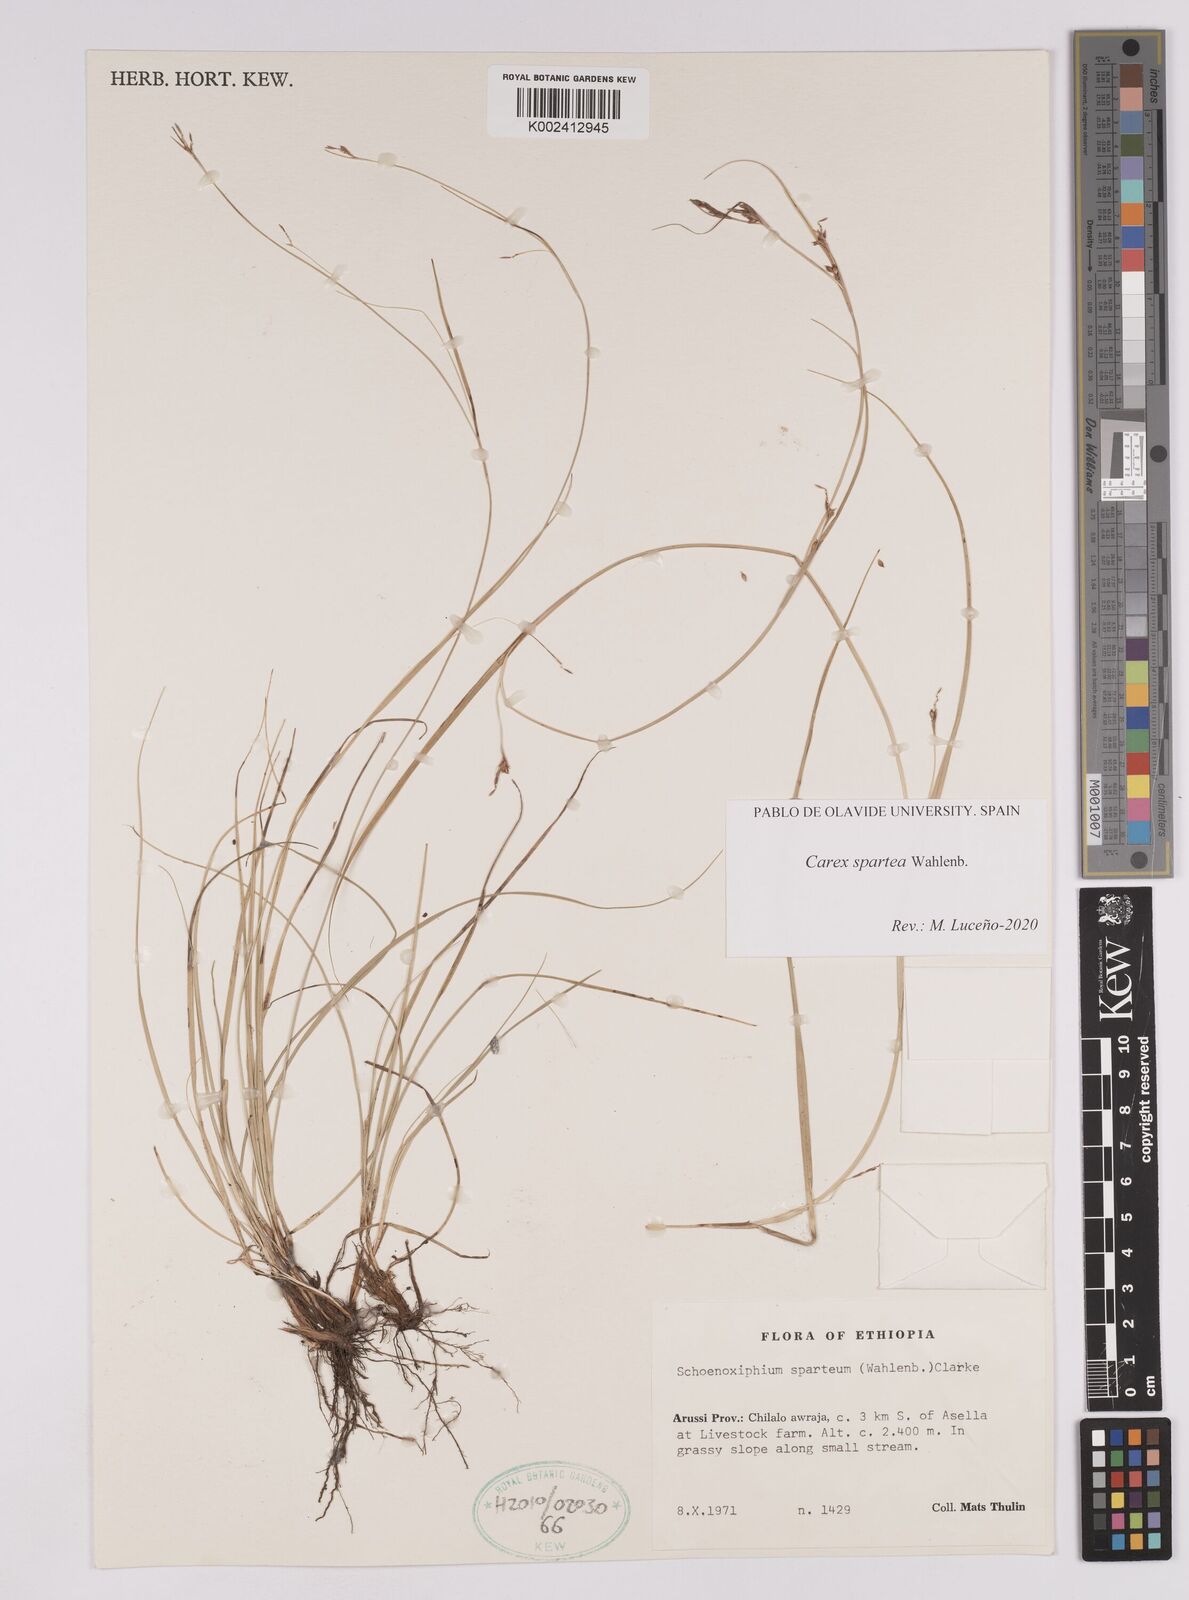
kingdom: Plantae
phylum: Tracheophyta
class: Liliopsida
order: Poales
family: Cyperaceae
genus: Carex
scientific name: Carex schimperiana
